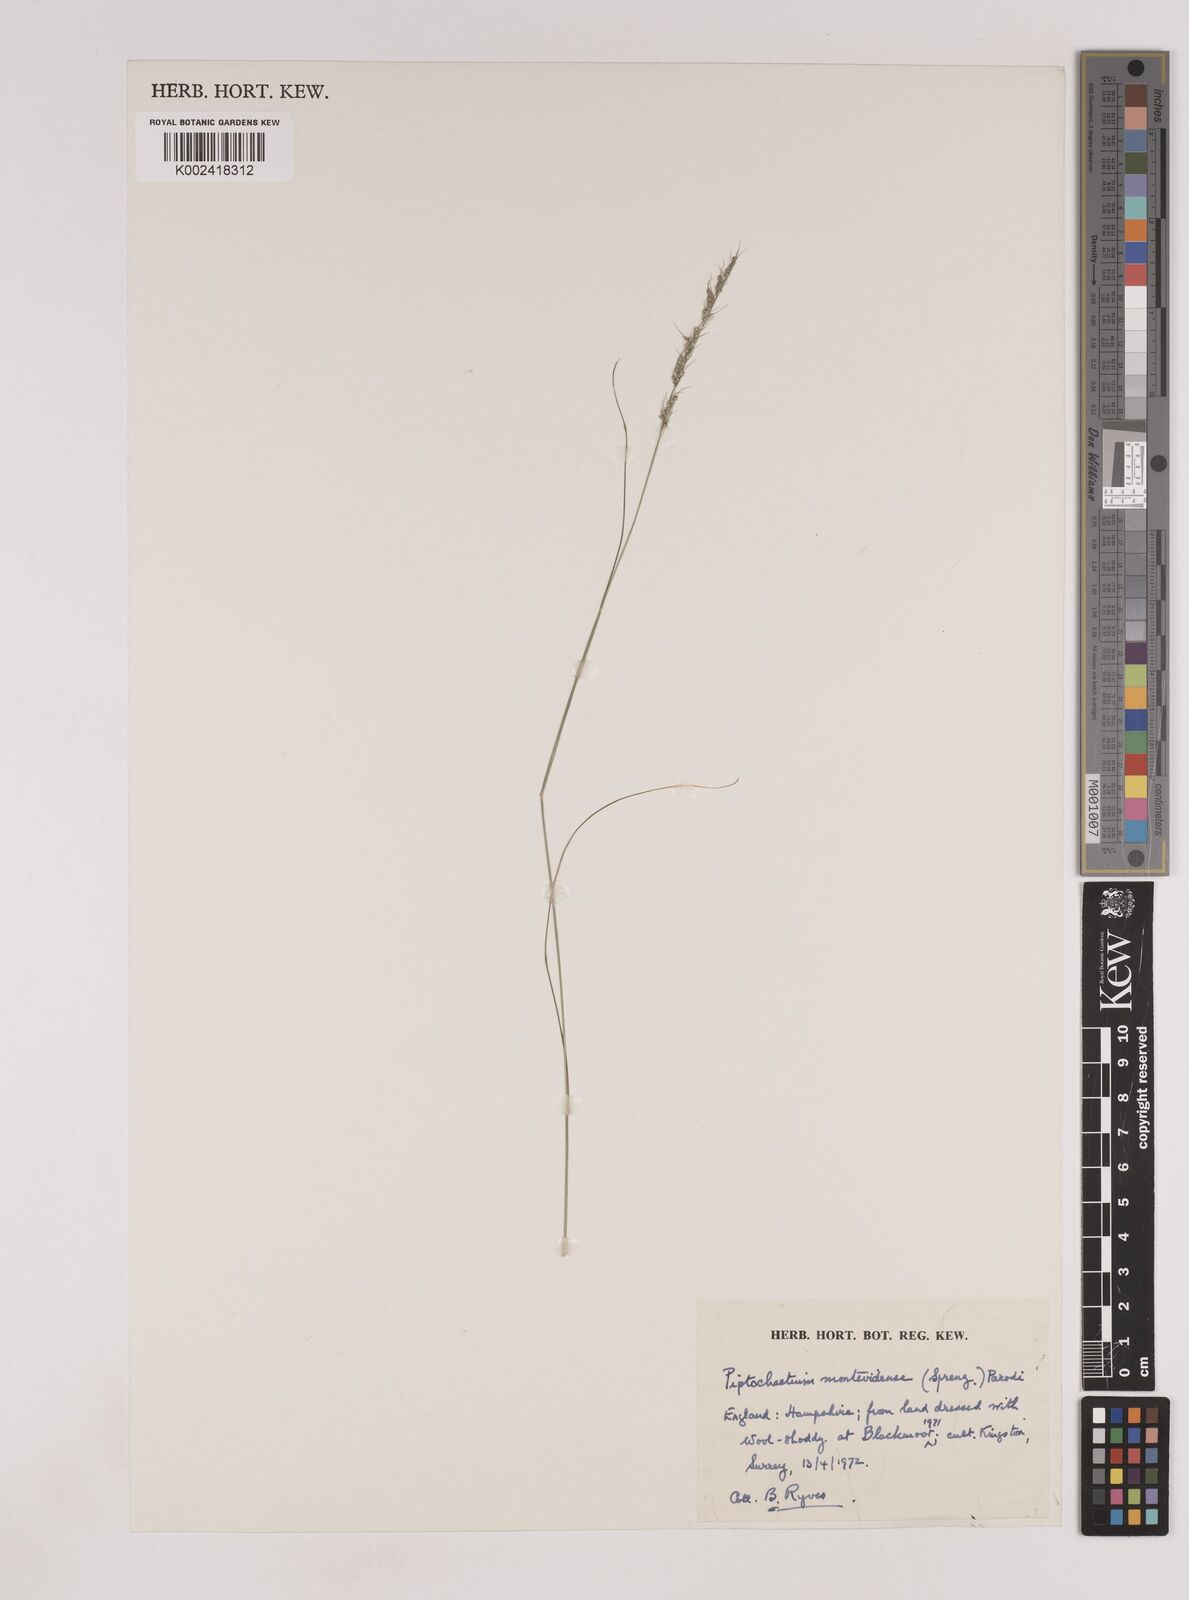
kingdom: Plantae
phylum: Tracheophyta
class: Liliopsida
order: Poales
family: Poaceae
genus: Piptochaetium
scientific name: Piptochaetium montevidense
